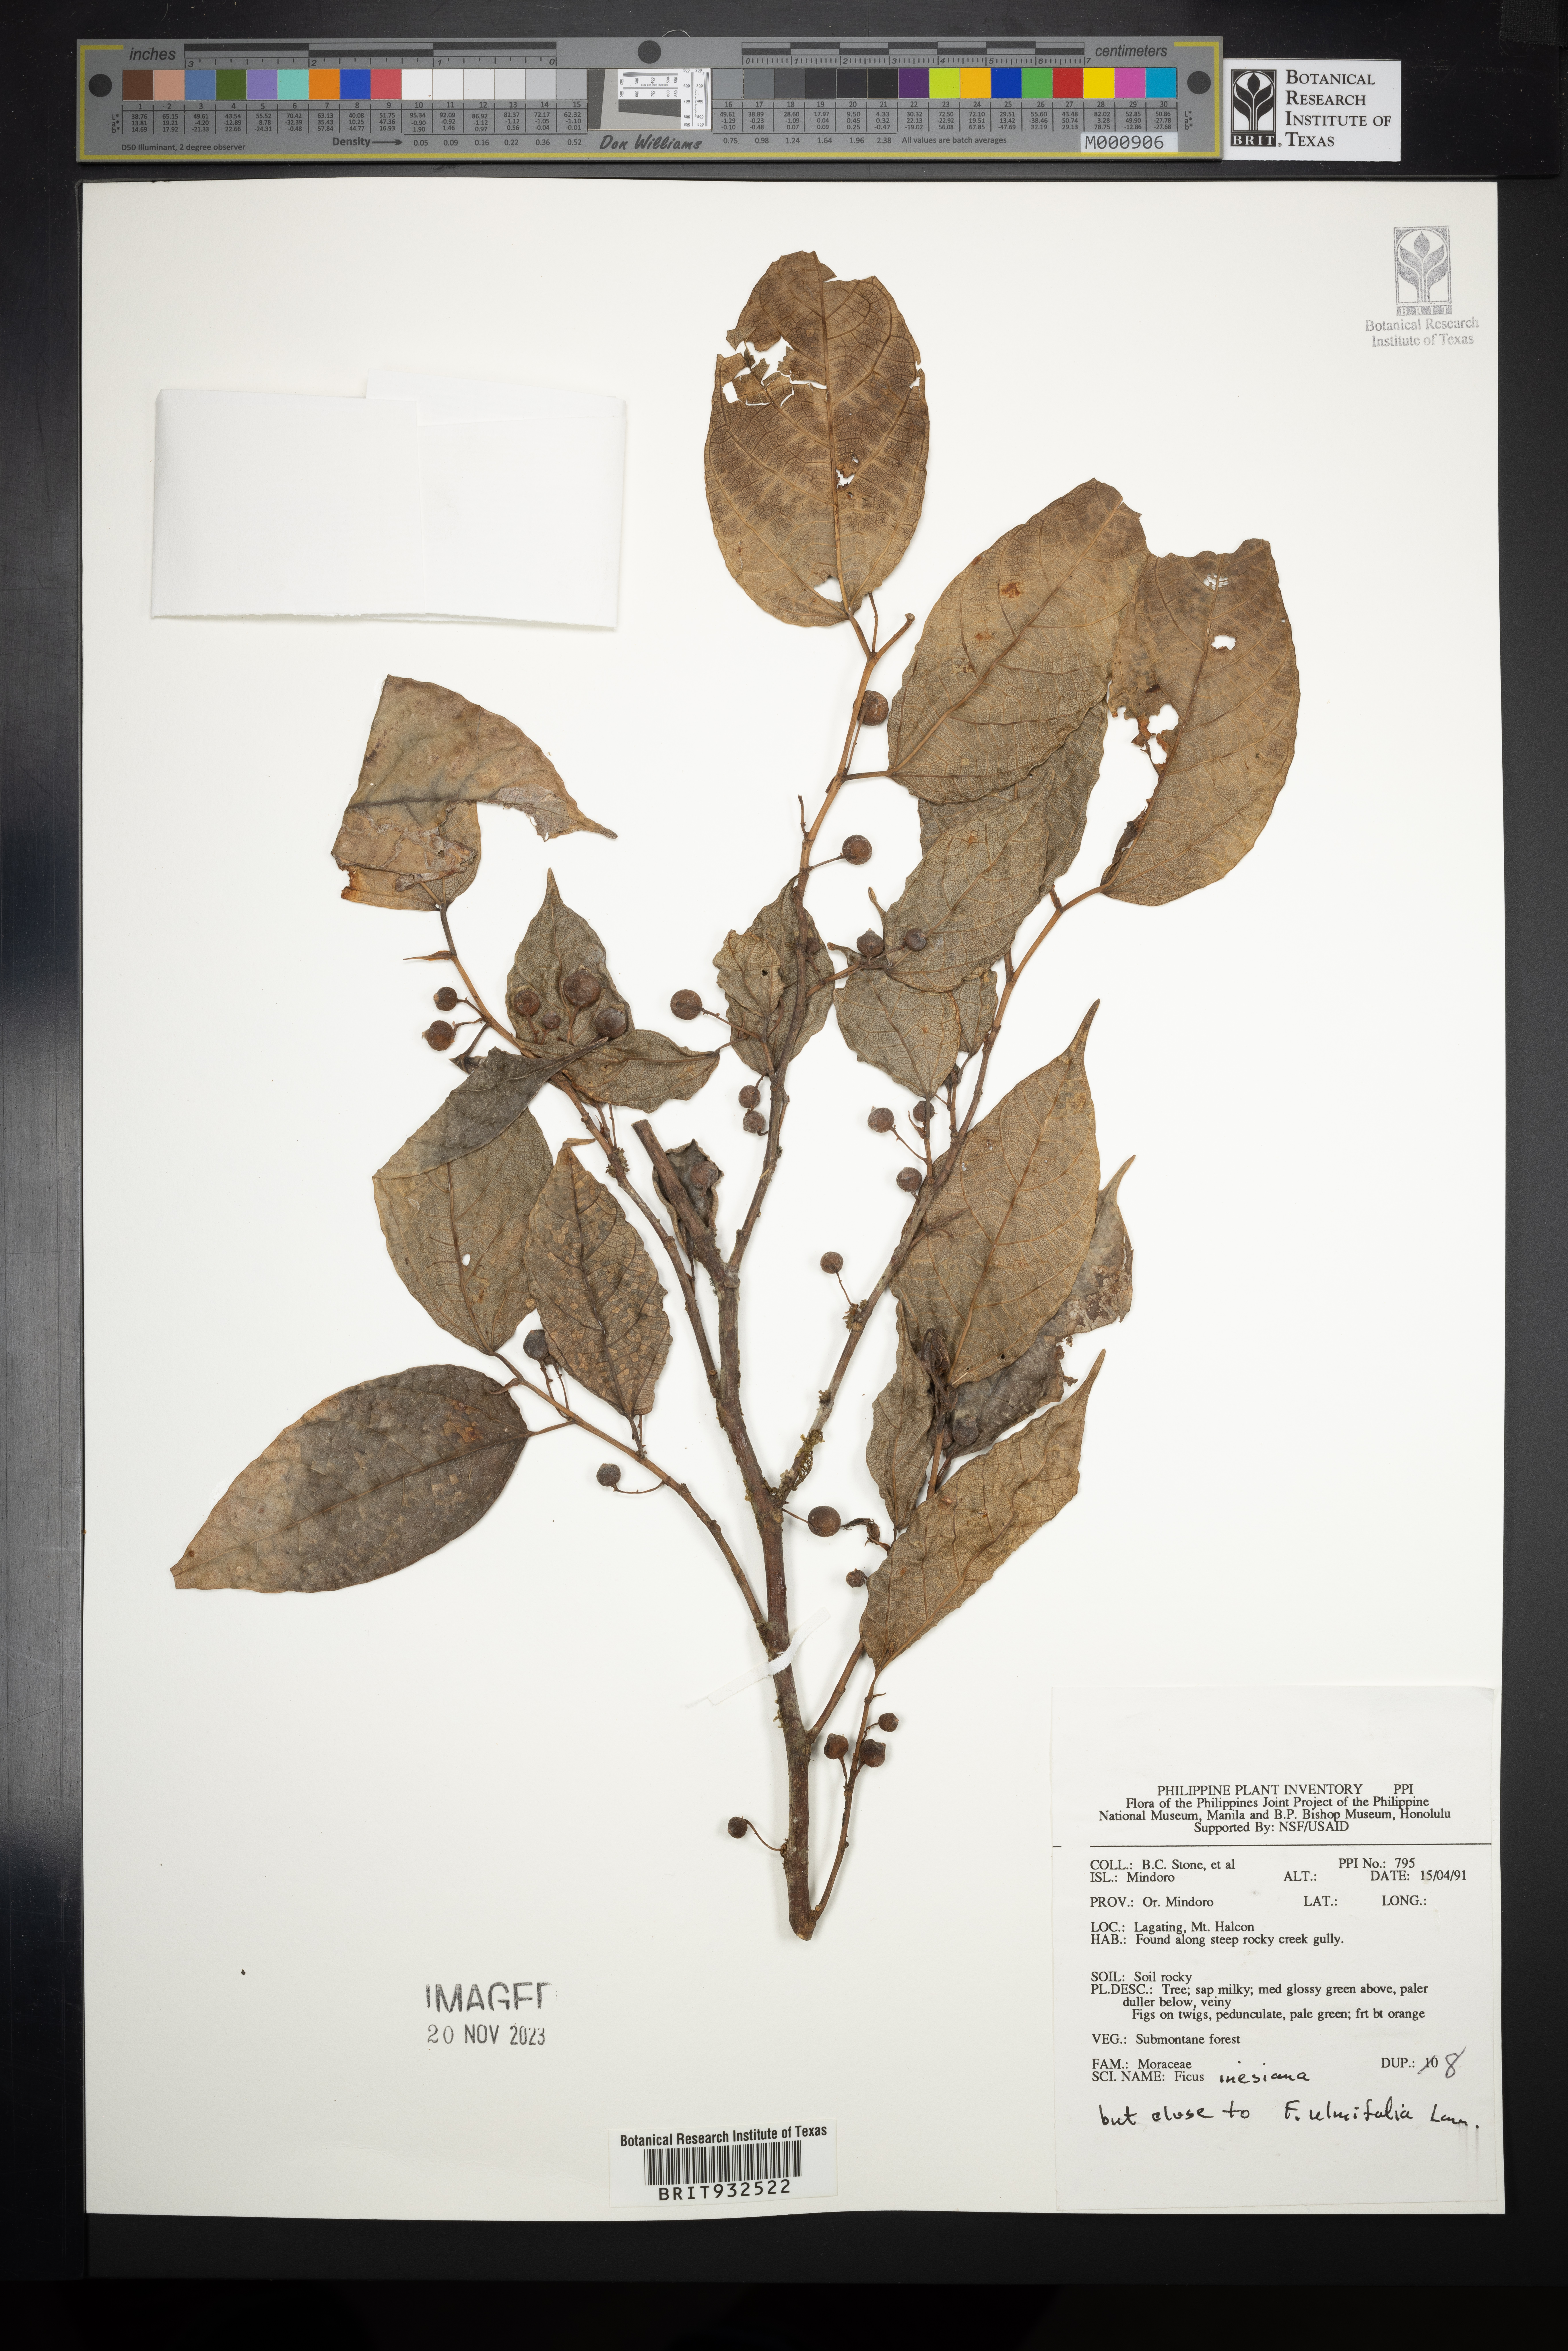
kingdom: Plantae
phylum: Tracheophyta
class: Magnoliopsida
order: Rosales
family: Moraceae
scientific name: Moraceae
